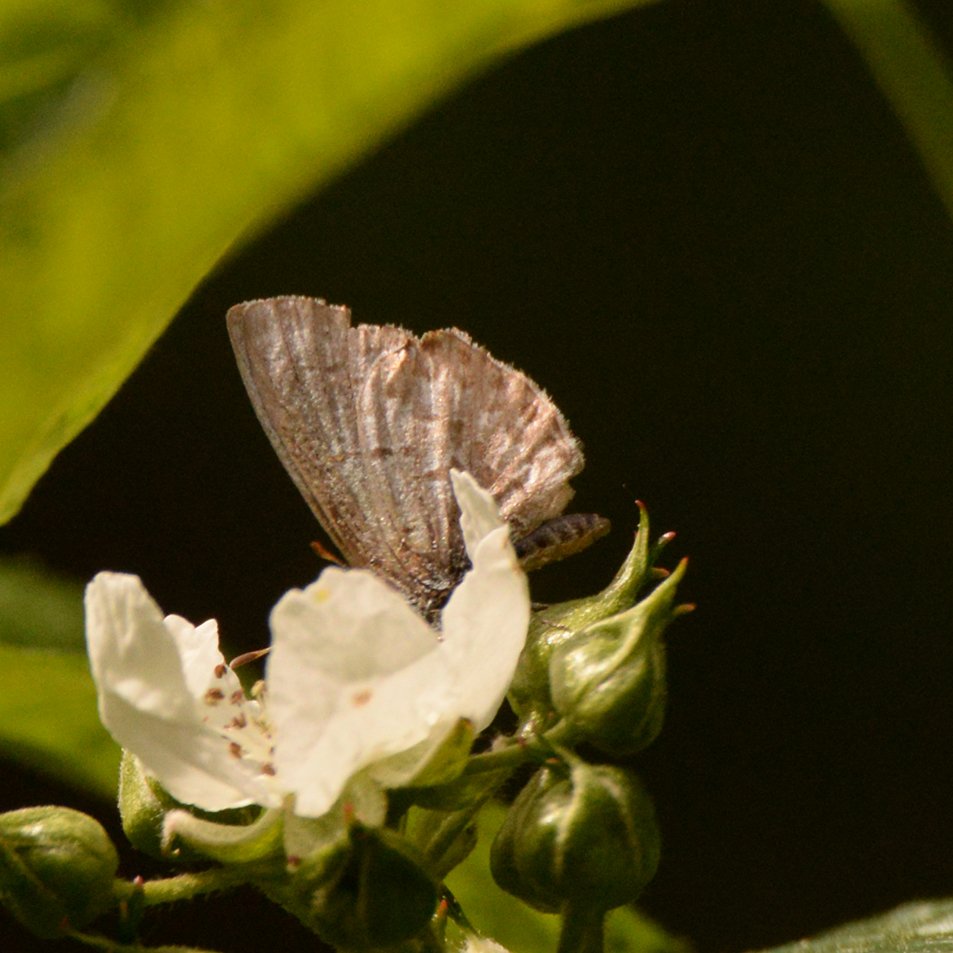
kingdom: Animalia
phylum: Arthropoda
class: Insecta
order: Lepidoptera
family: Lycaenidae
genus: Celastrina
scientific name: Celastrina lucia
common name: Northern Spring Azure
